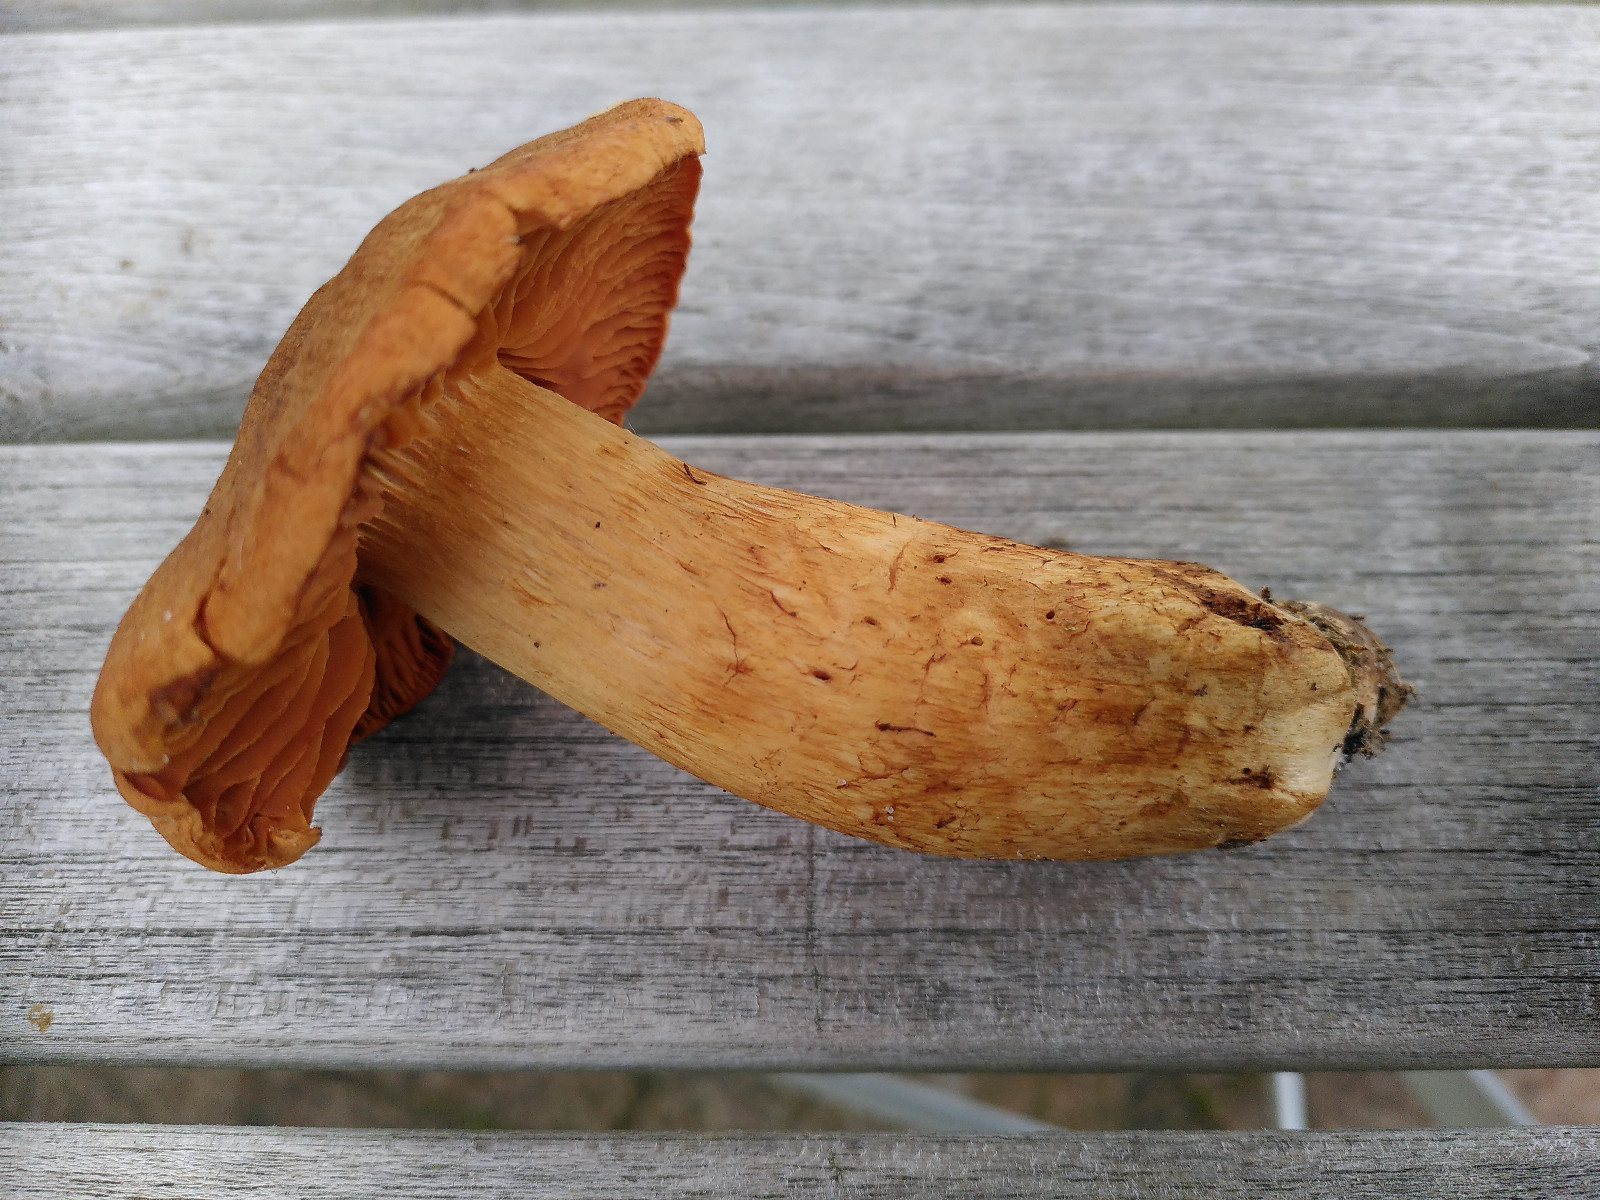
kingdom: Fungi
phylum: Basidiomycota
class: Agaricomycetes
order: Agaricales
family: Cortinariaceae
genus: Cortinarius
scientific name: Cortinarius rubellus
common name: puklet gift-slørhat
